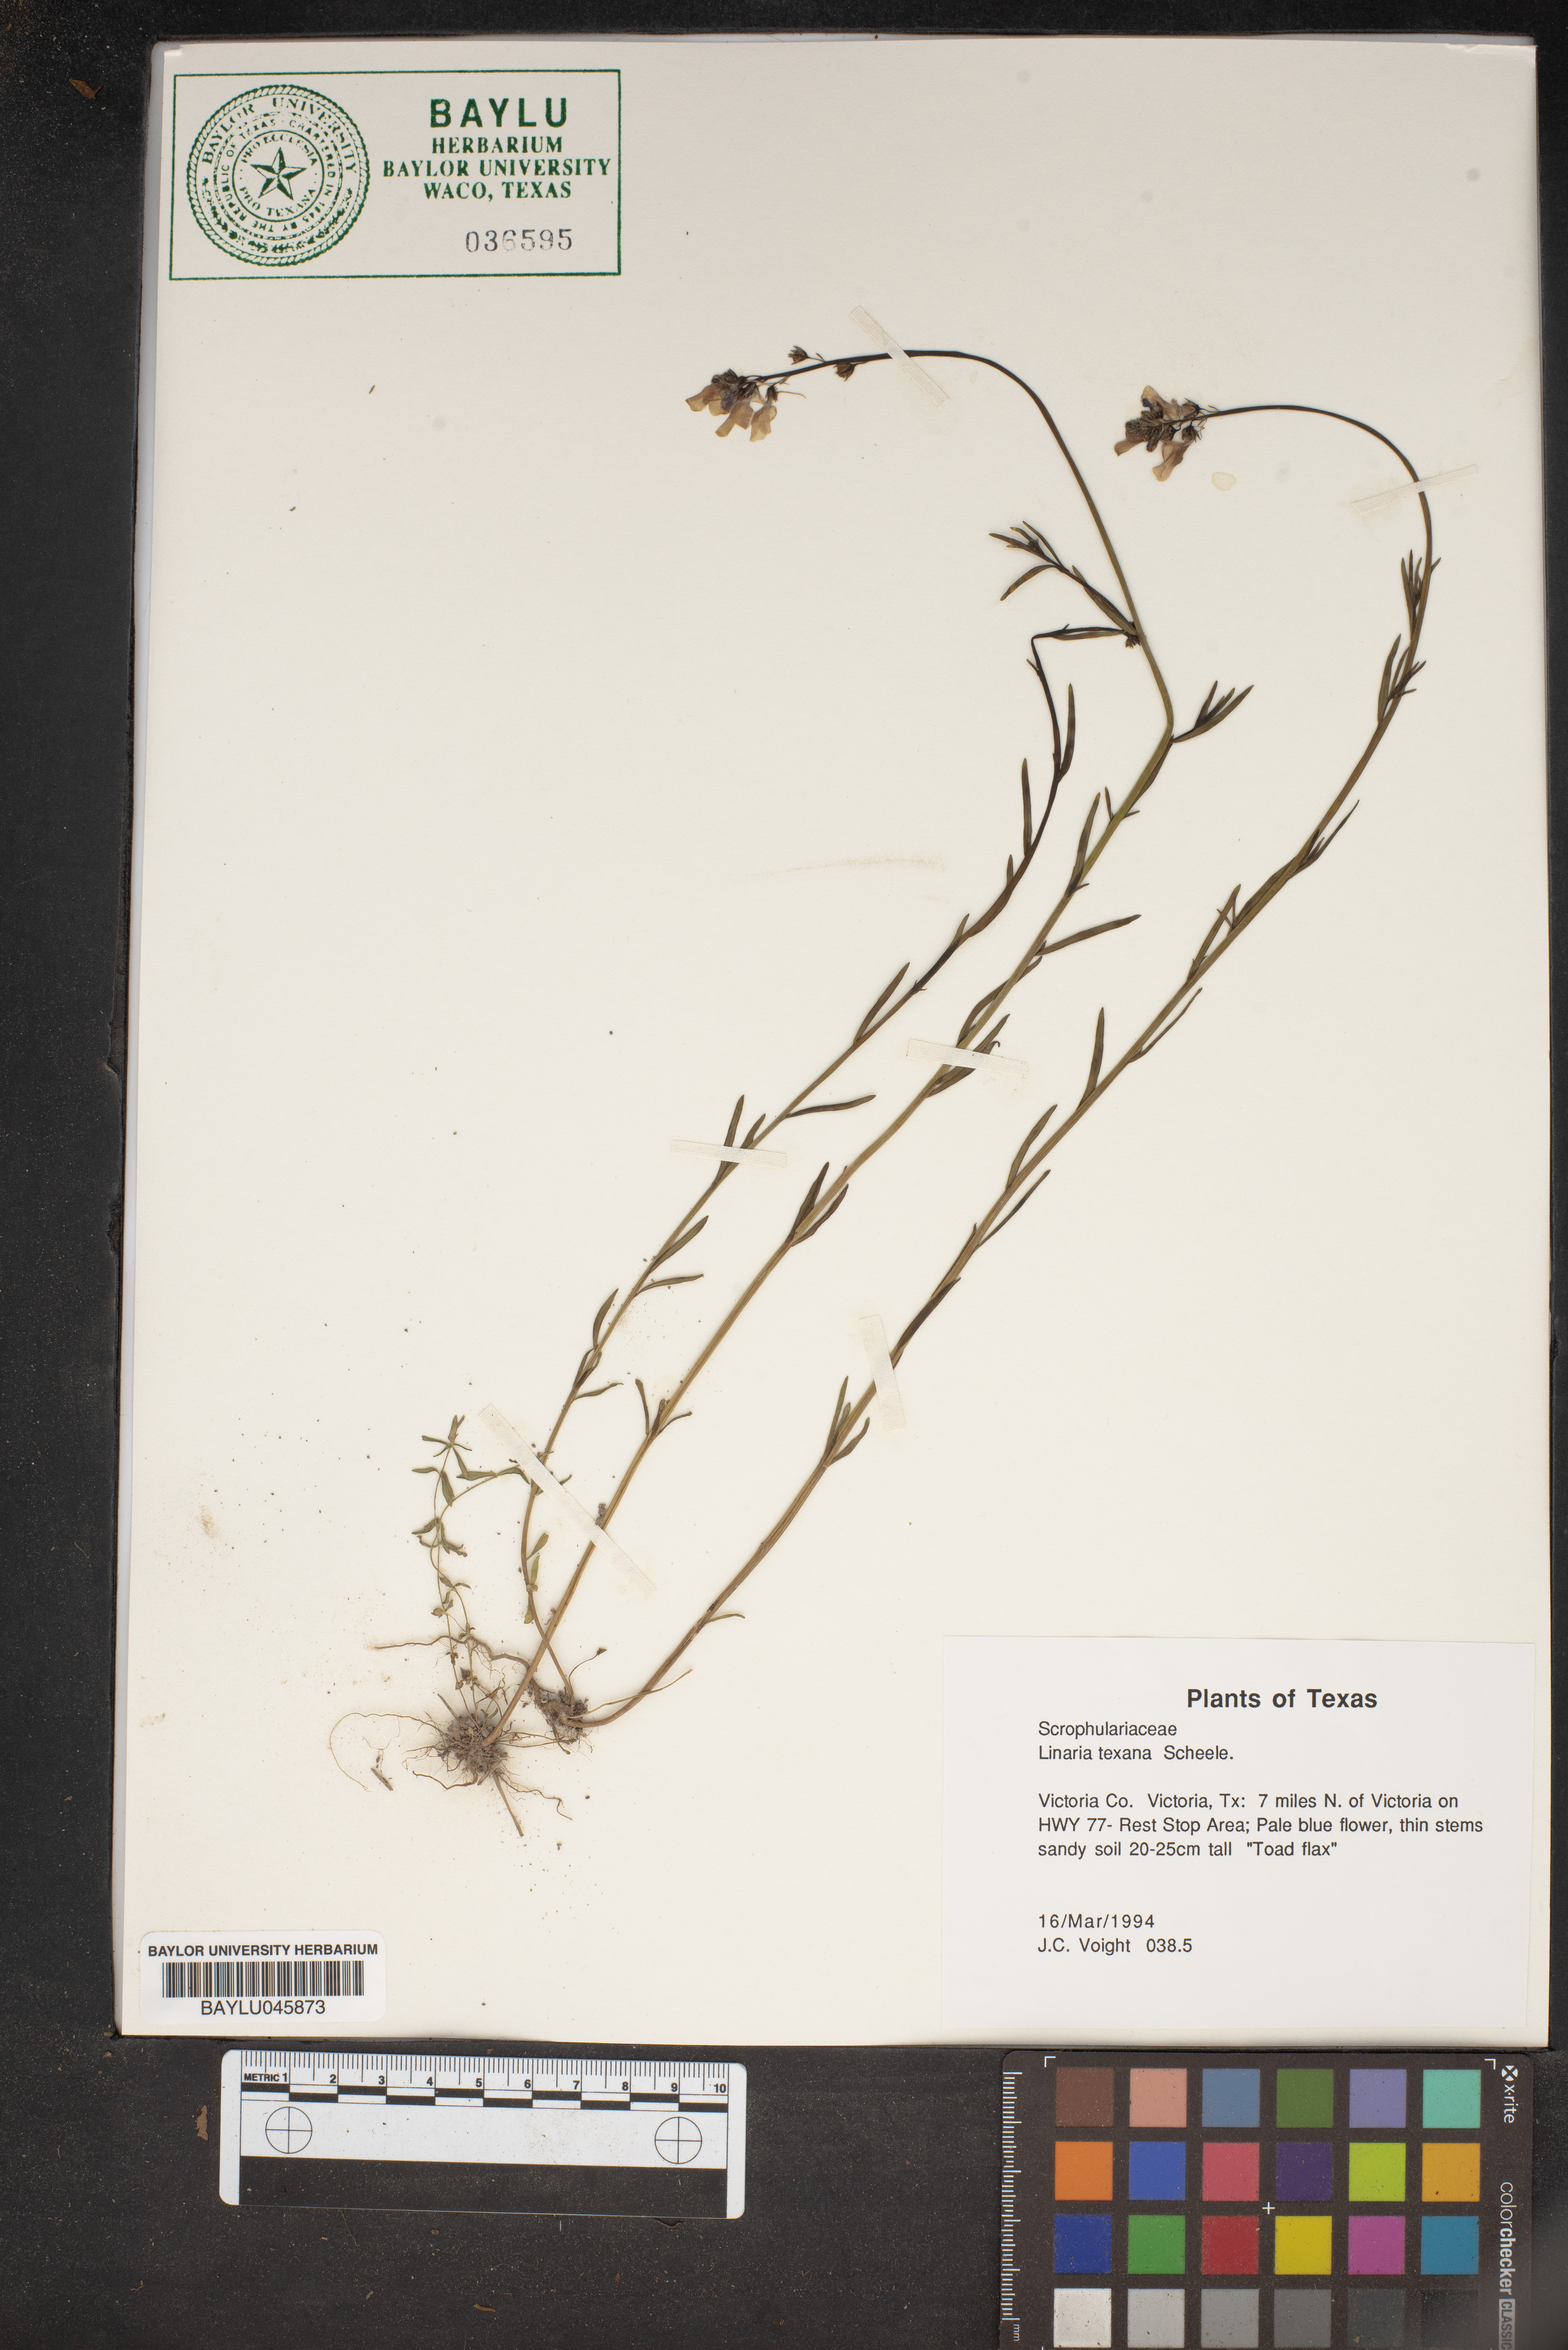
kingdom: Plantae
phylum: Tracheophyta
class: Magnoliopsida
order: Lamiales
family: Plantaginaceae
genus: Nuttallanthus
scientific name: Nuttallanthus texanus
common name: Texas toadflax
